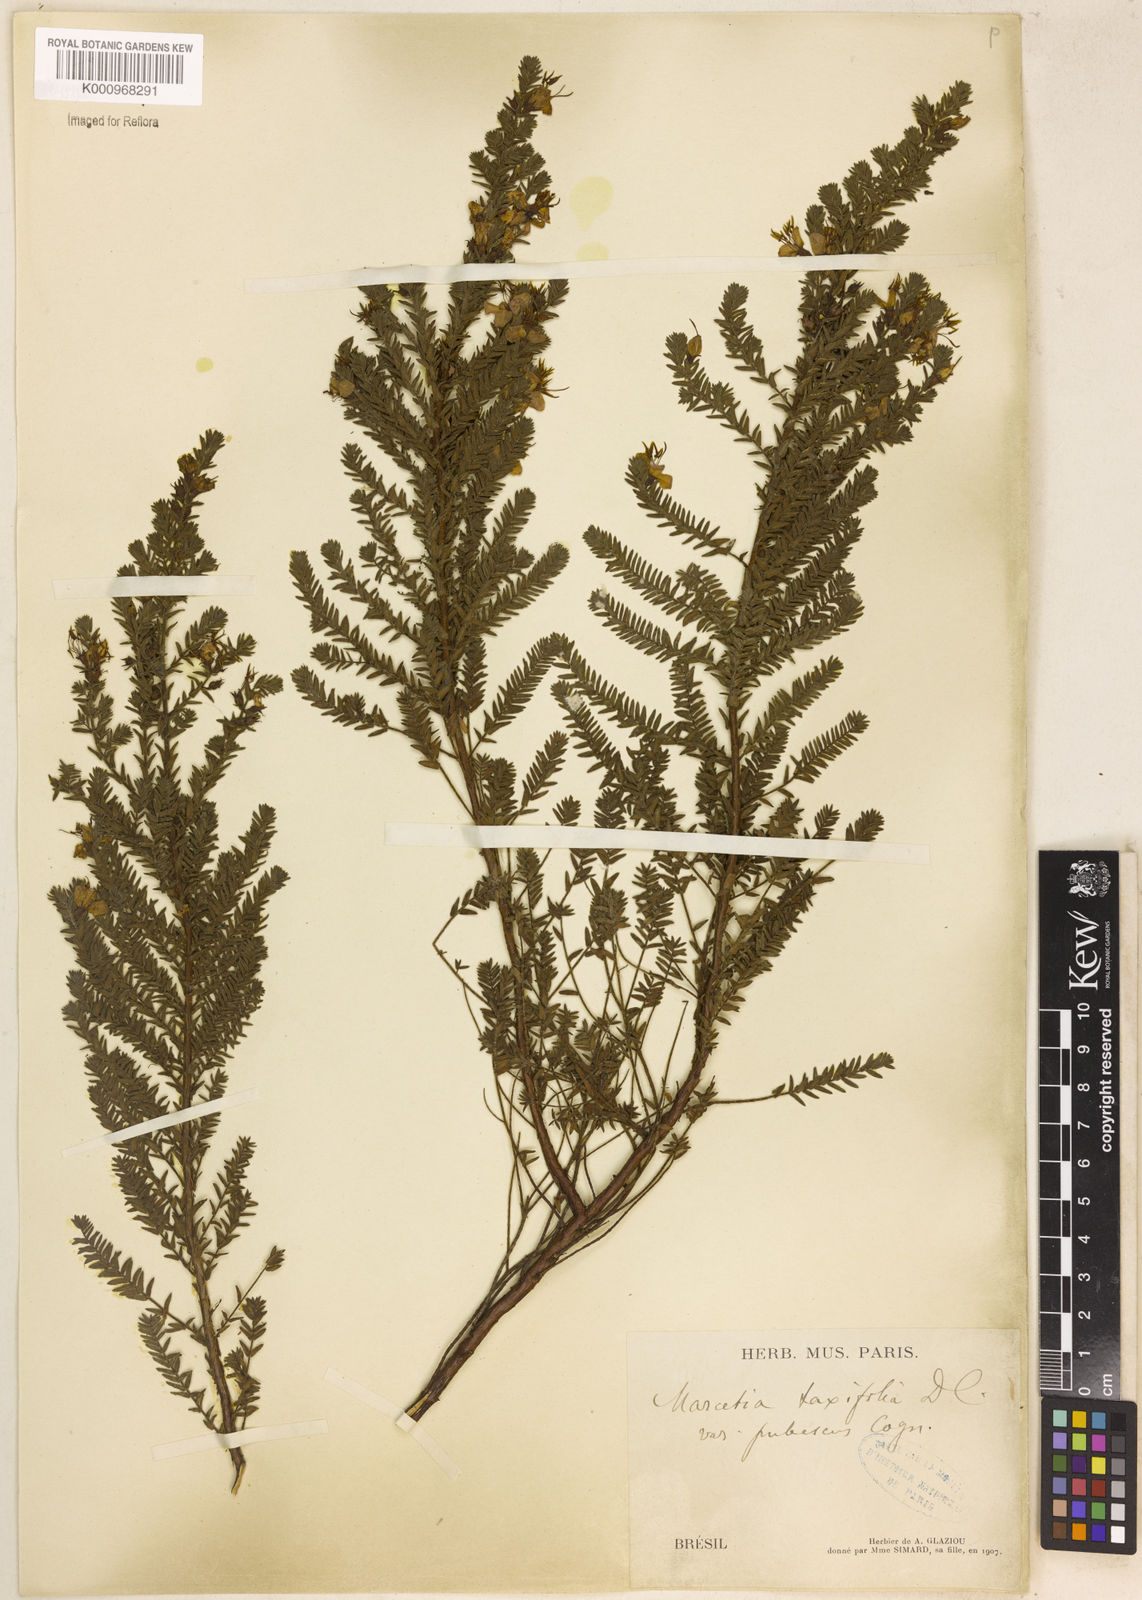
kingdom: Plantae
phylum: Tracheophyta
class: Magnoliopsida
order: Myrtales
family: Melastomataceae
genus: Marcetia
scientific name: Marcetia taxifolia
